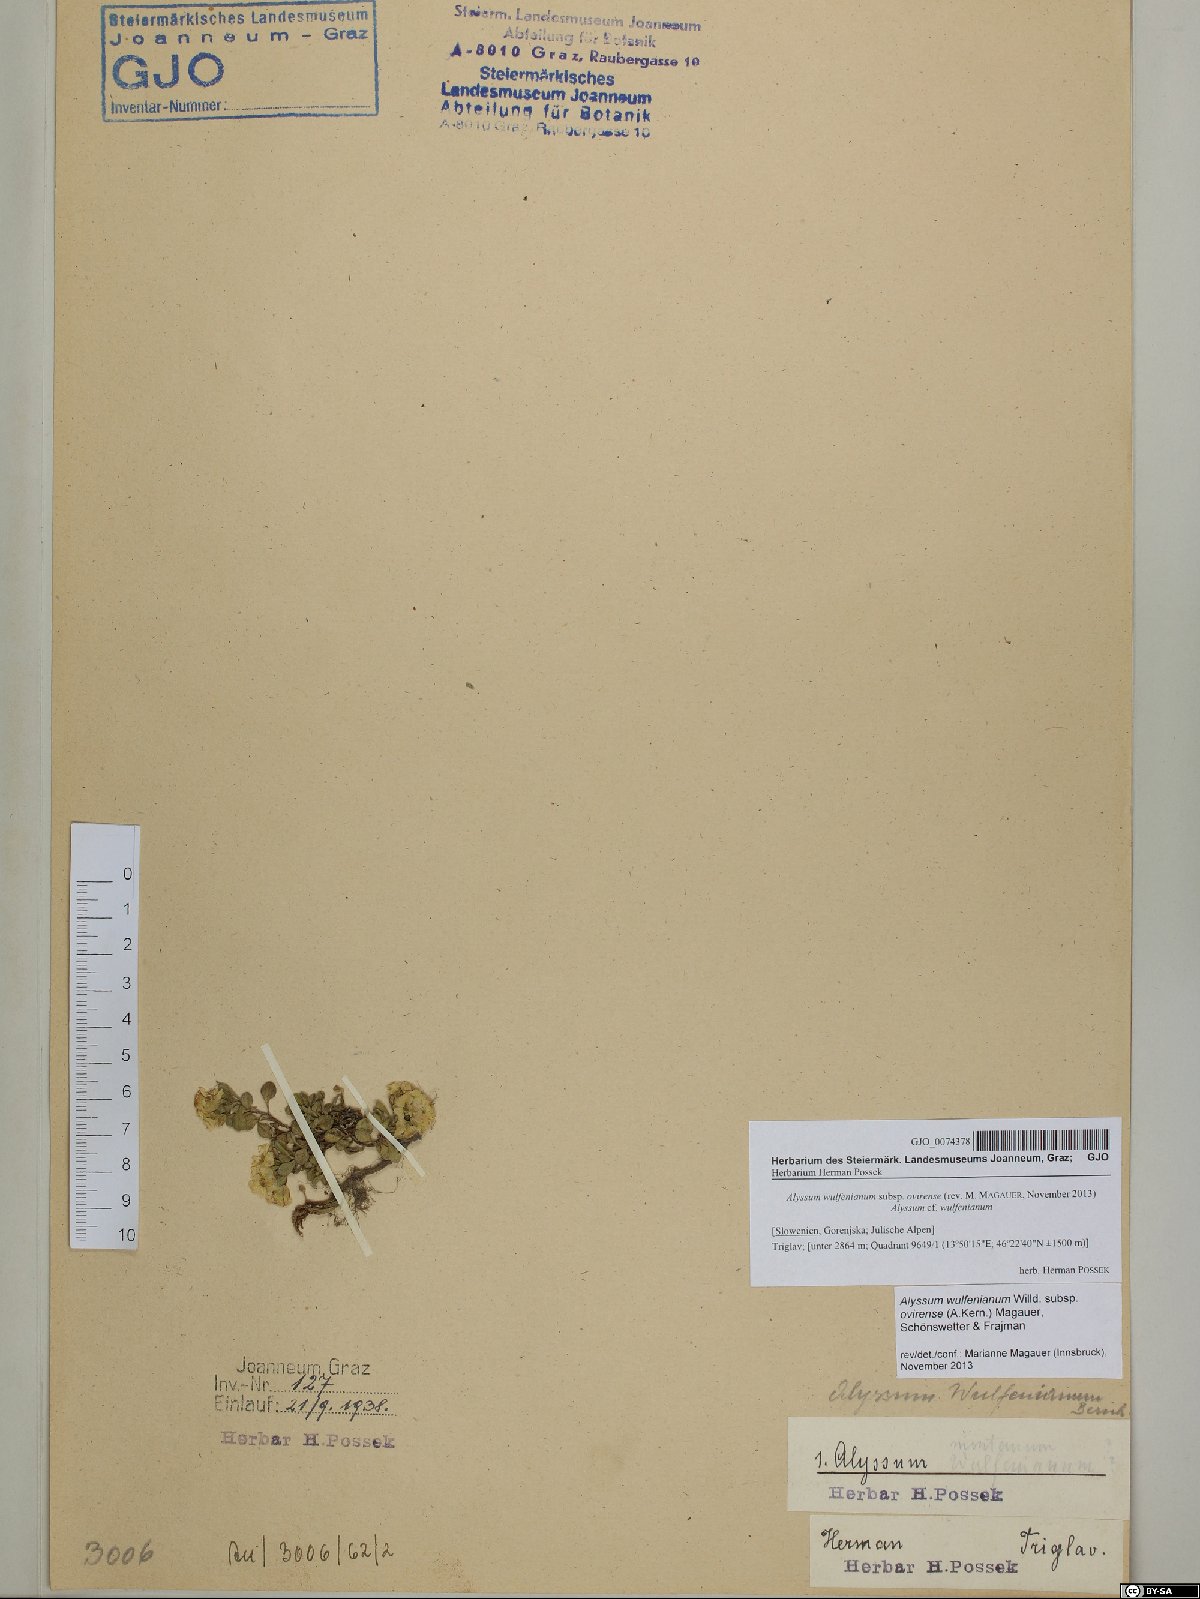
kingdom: Plantae
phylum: Tracheophyta
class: Magnoliopsida
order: Brassicales
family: Brassicaceae
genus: Alyssum
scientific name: Alyssum wulfenianum
